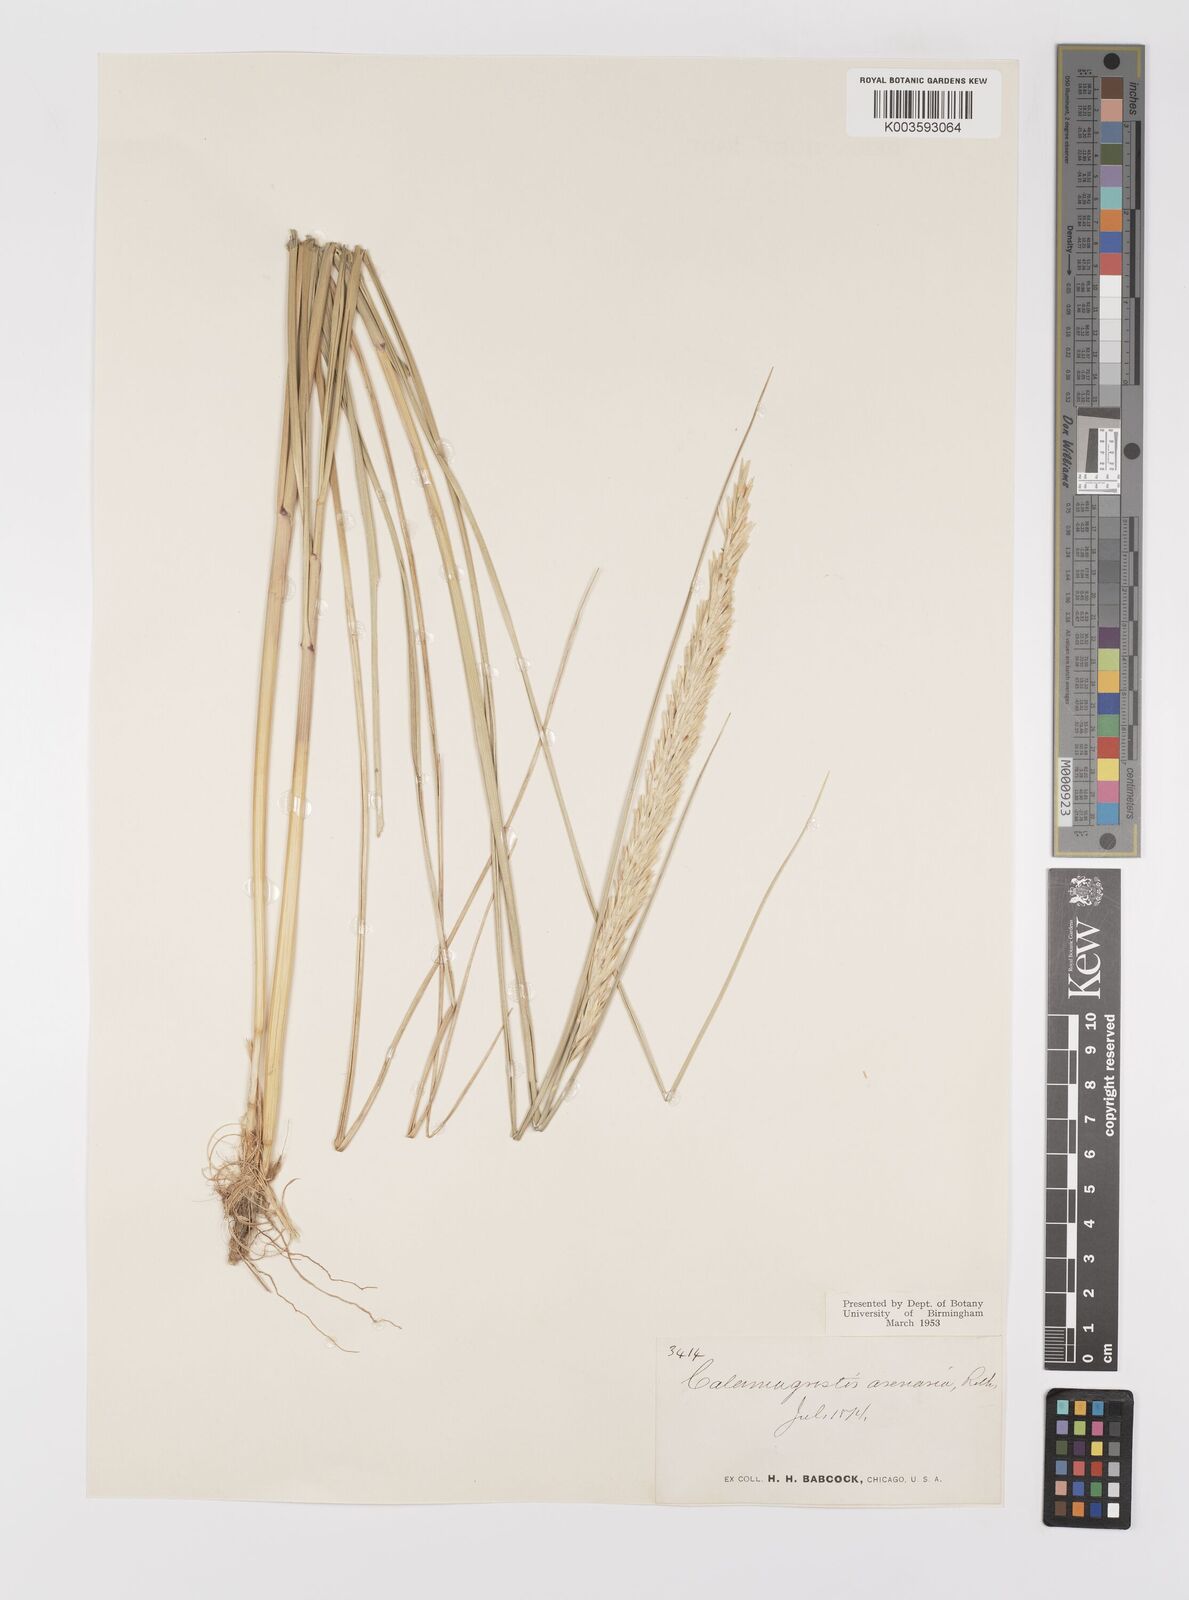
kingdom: Plantae
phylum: Tracheophyta
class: Liliopsida
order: Poales
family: Poaceae
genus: Calamagrostis
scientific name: Calamagrostis breviligulata
